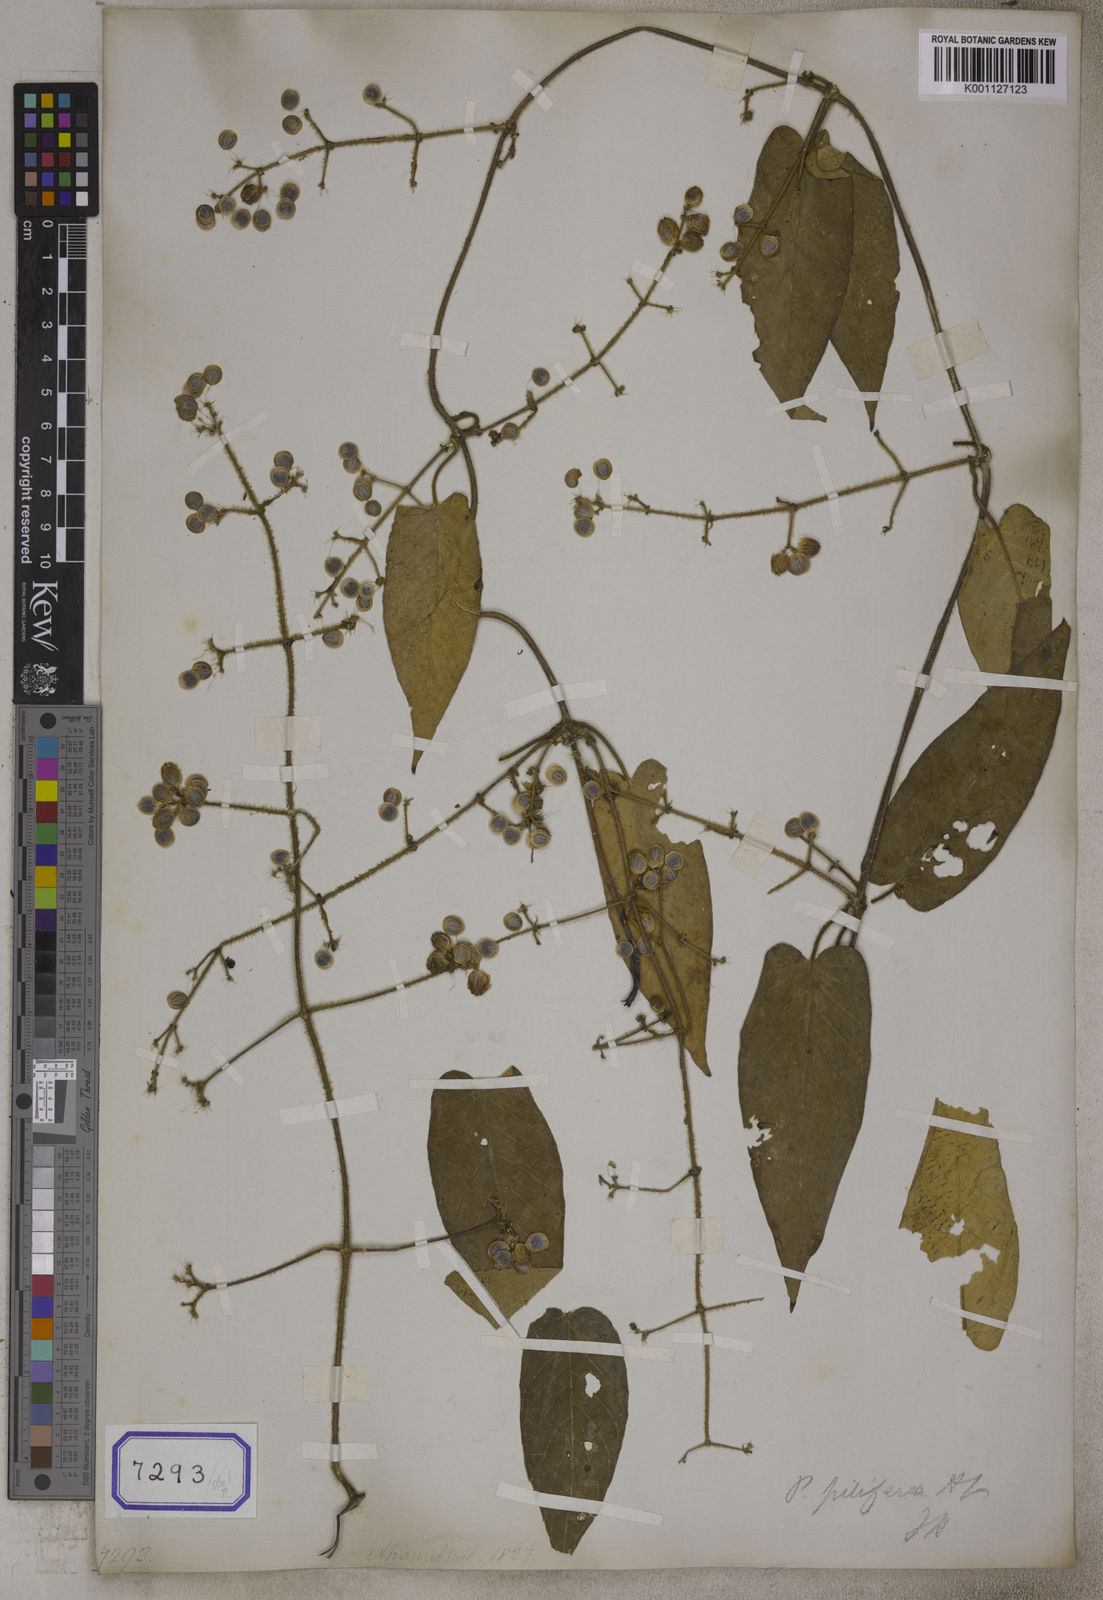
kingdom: Plantae
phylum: Tracheophyta
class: Magnoliopsida
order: Gentianales
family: Rubiaceae
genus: Paederia
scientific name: Paederia lanuginosa
